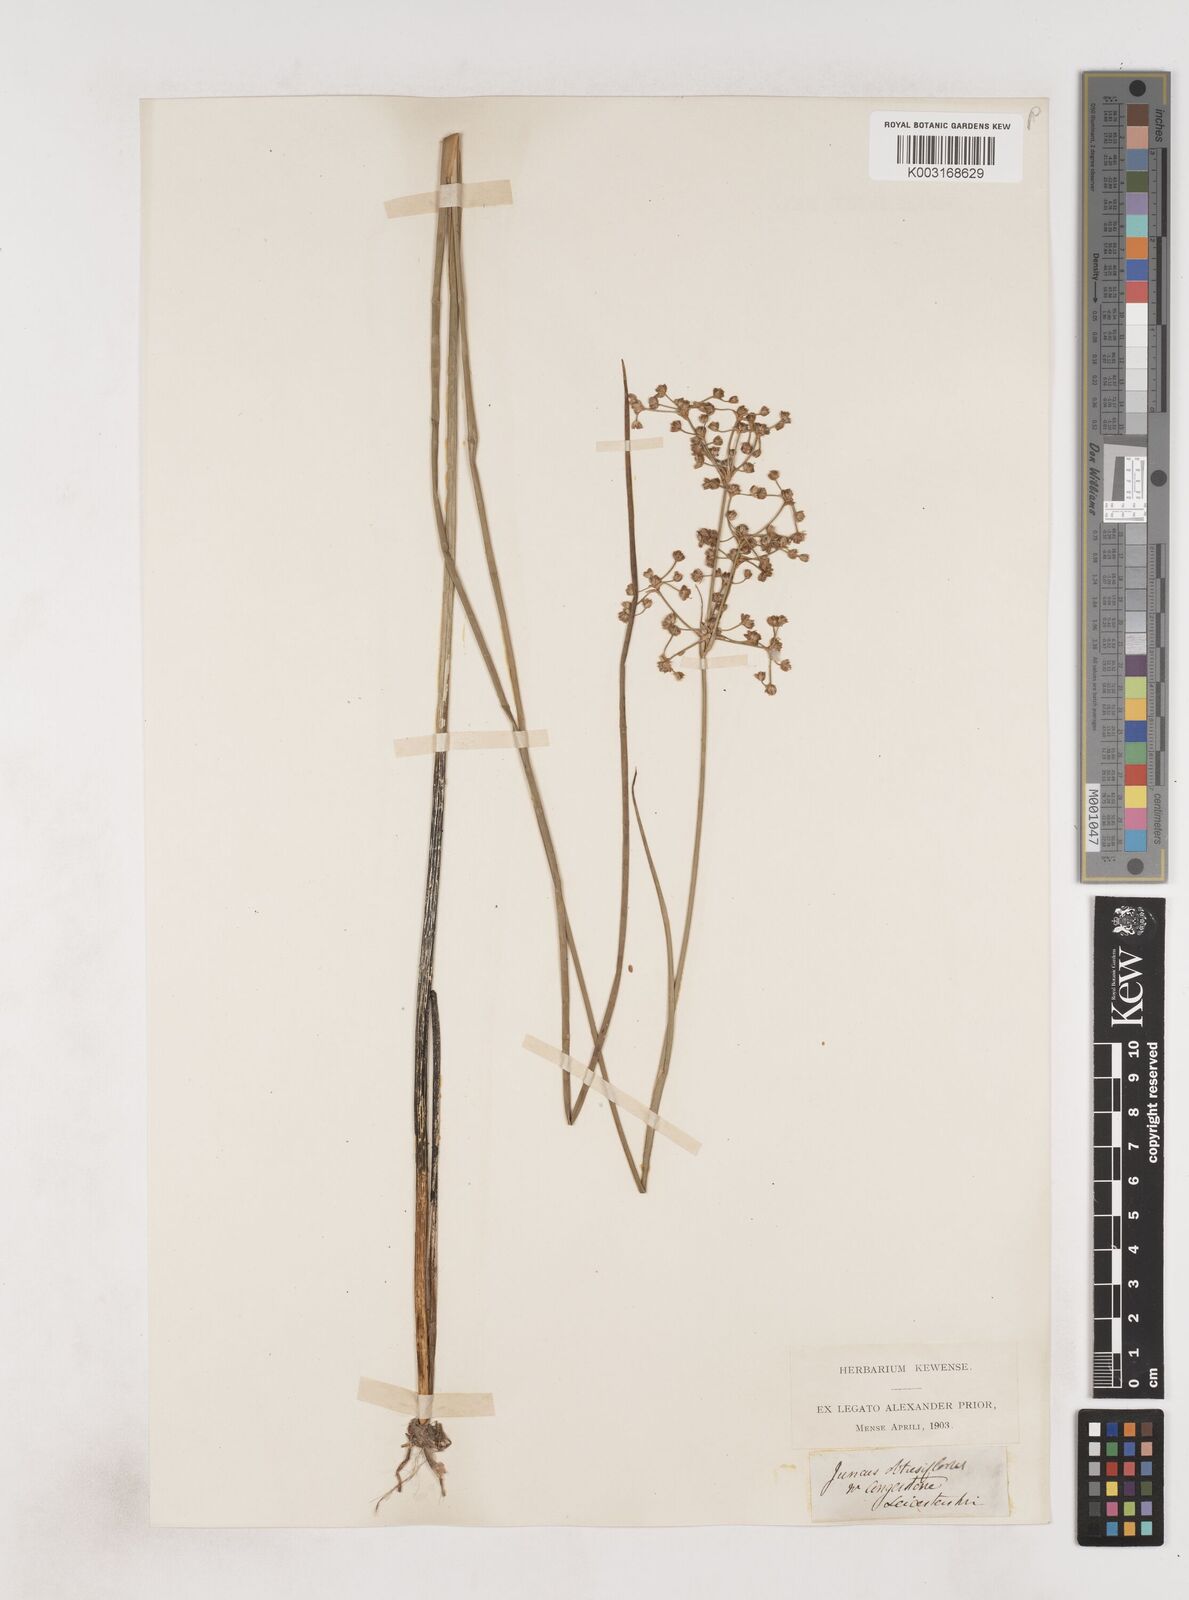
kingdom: Plantae
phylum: Tracheophyta
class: Liliopsida
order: Poales
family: Juncaceae
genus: Juncus
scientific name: Juncus subnodulosus
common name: Blunt-flowered rush
